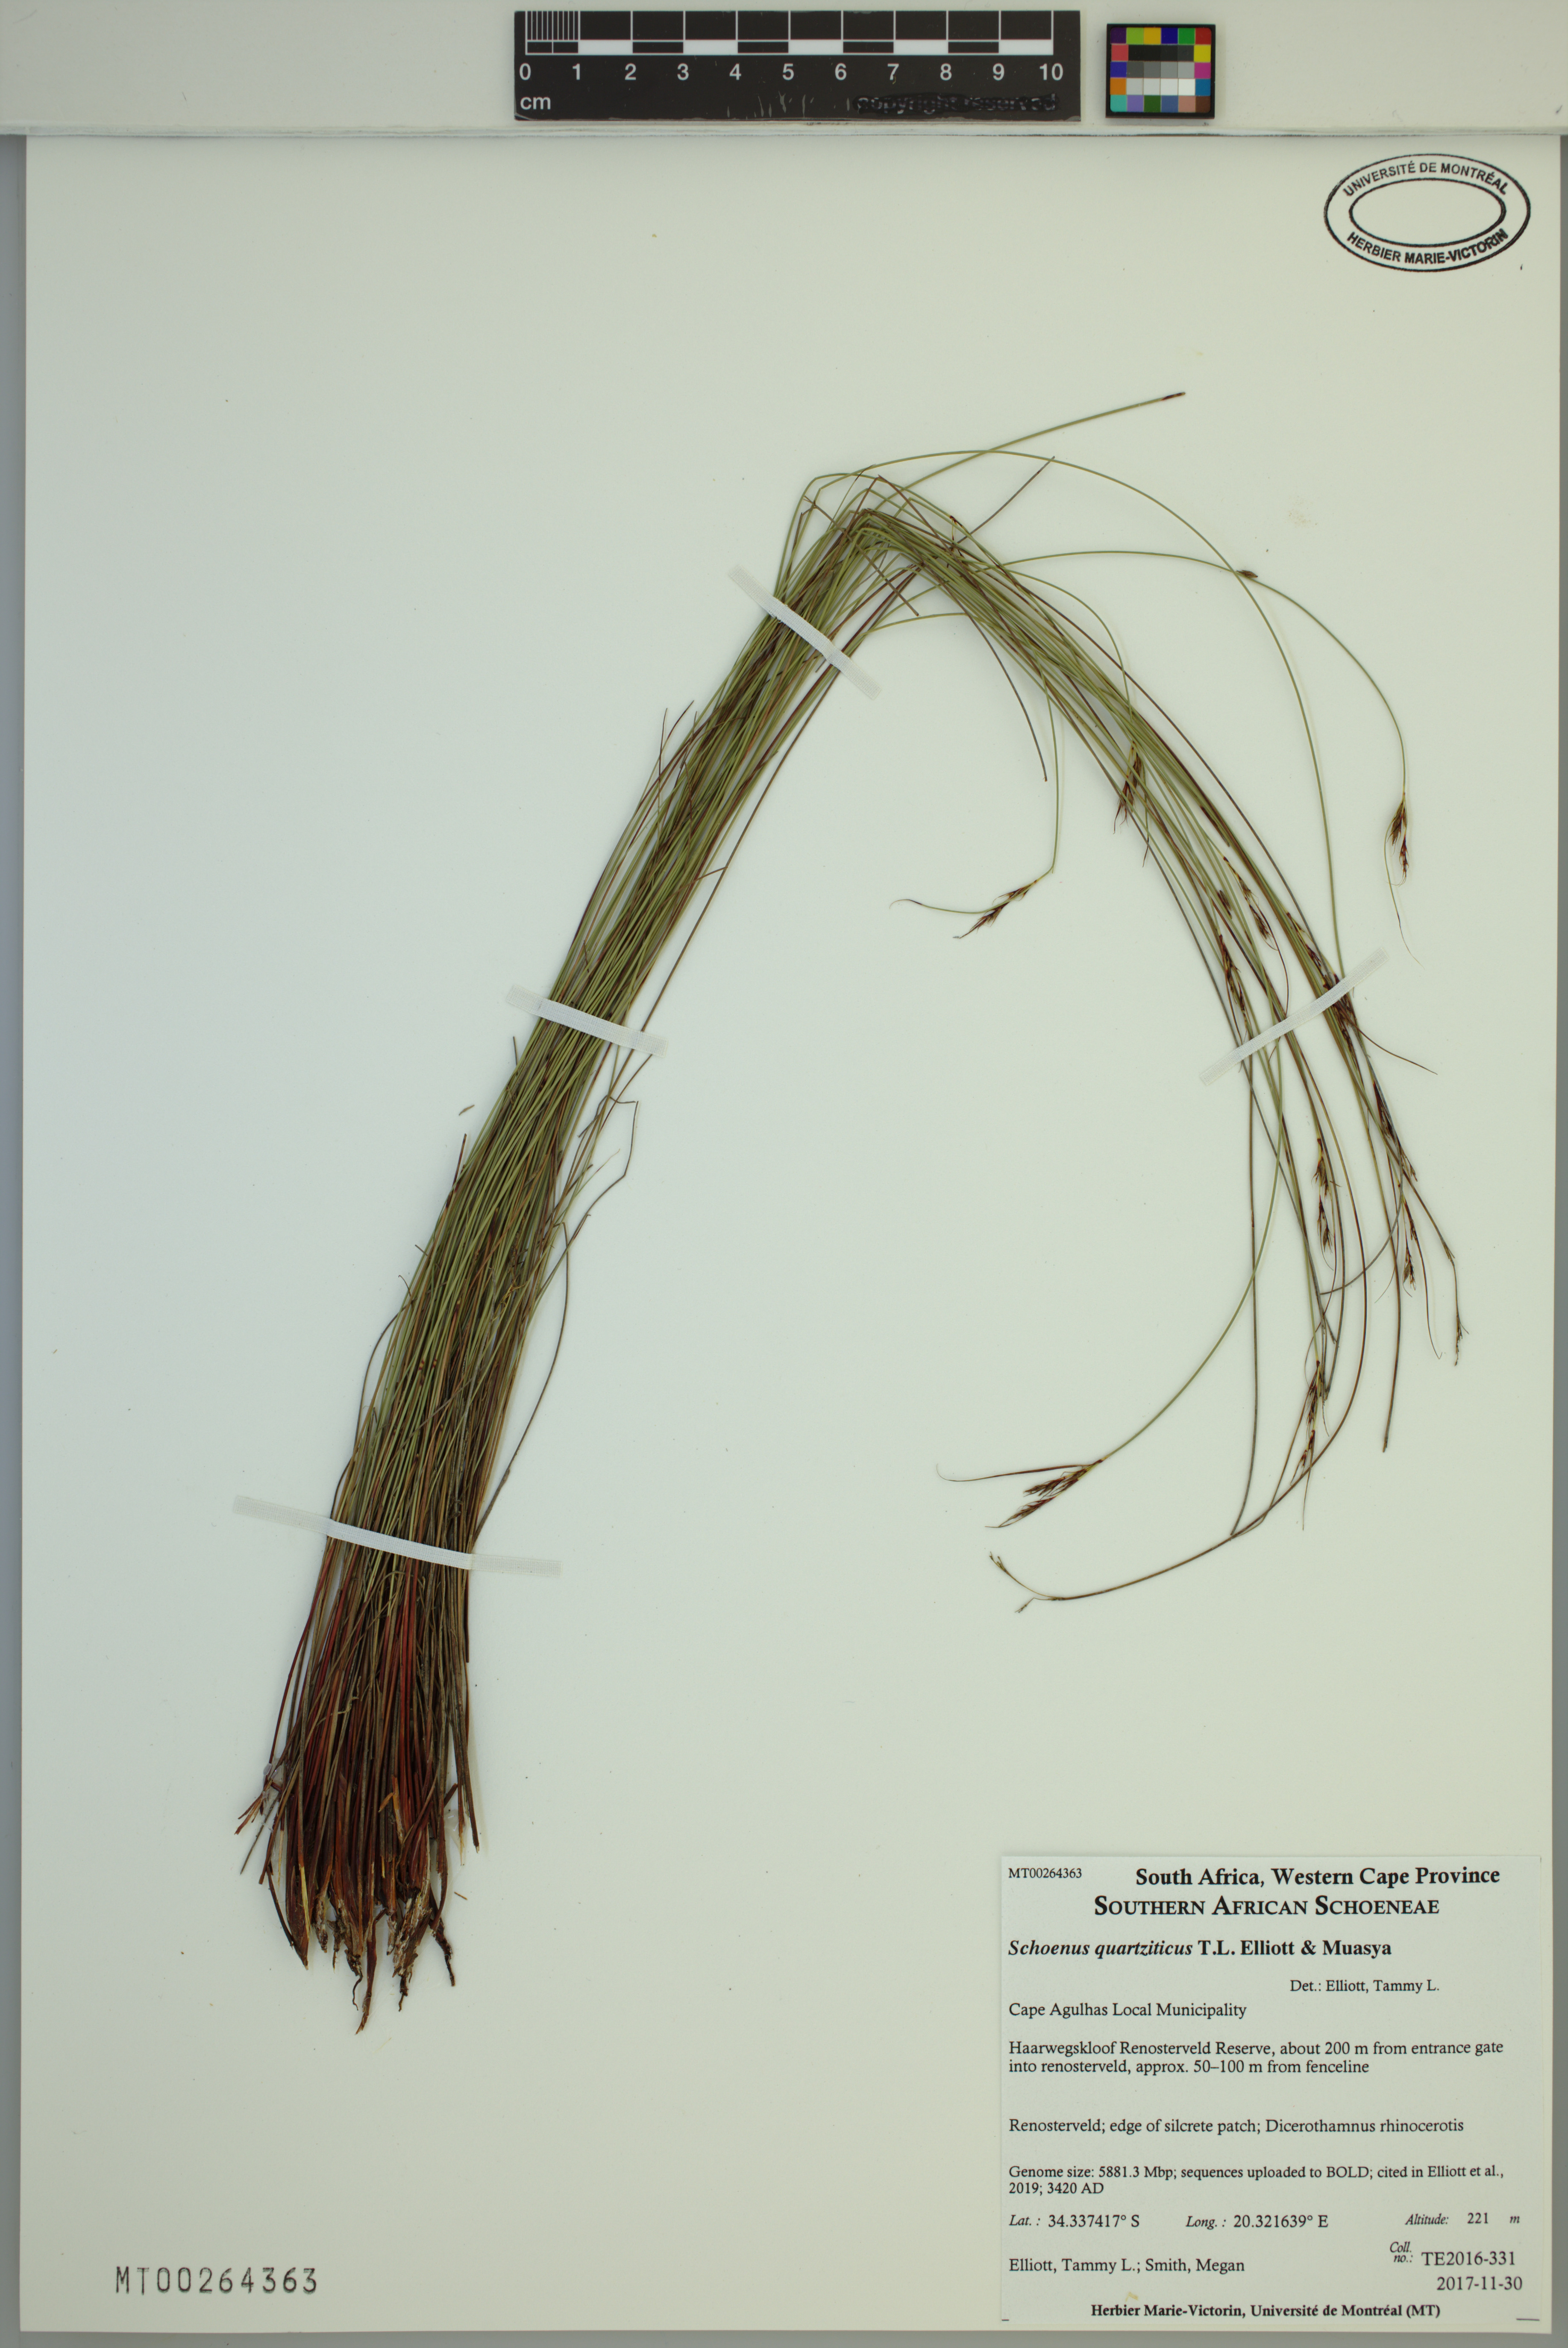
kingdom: Plantae
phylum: Tracheophyta
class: Liliopsida
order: Poales
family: Cyperaceae
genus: Schoenus
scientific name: Schoenus quartziticus
